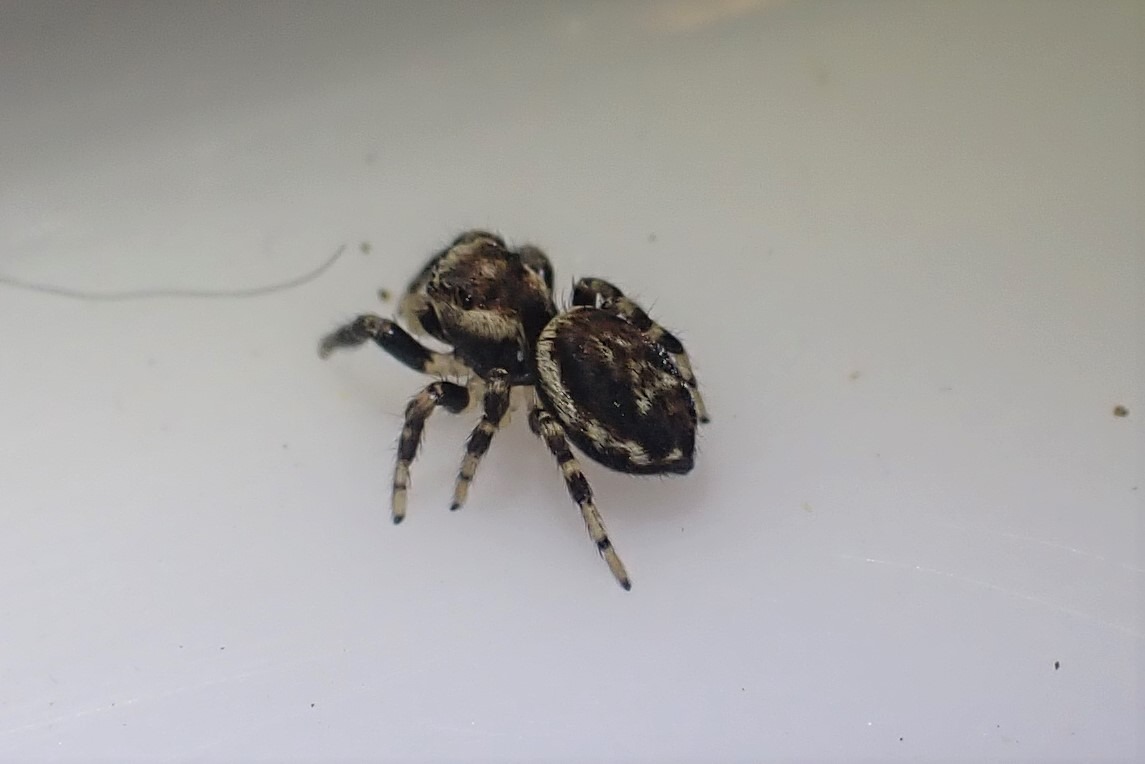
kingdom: Animalia
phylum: Arthropoda
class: Arachnida
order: Araneae
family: Salticidae
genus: Evarcha
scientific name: Evarcha falcata
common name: Broget springedderkop
